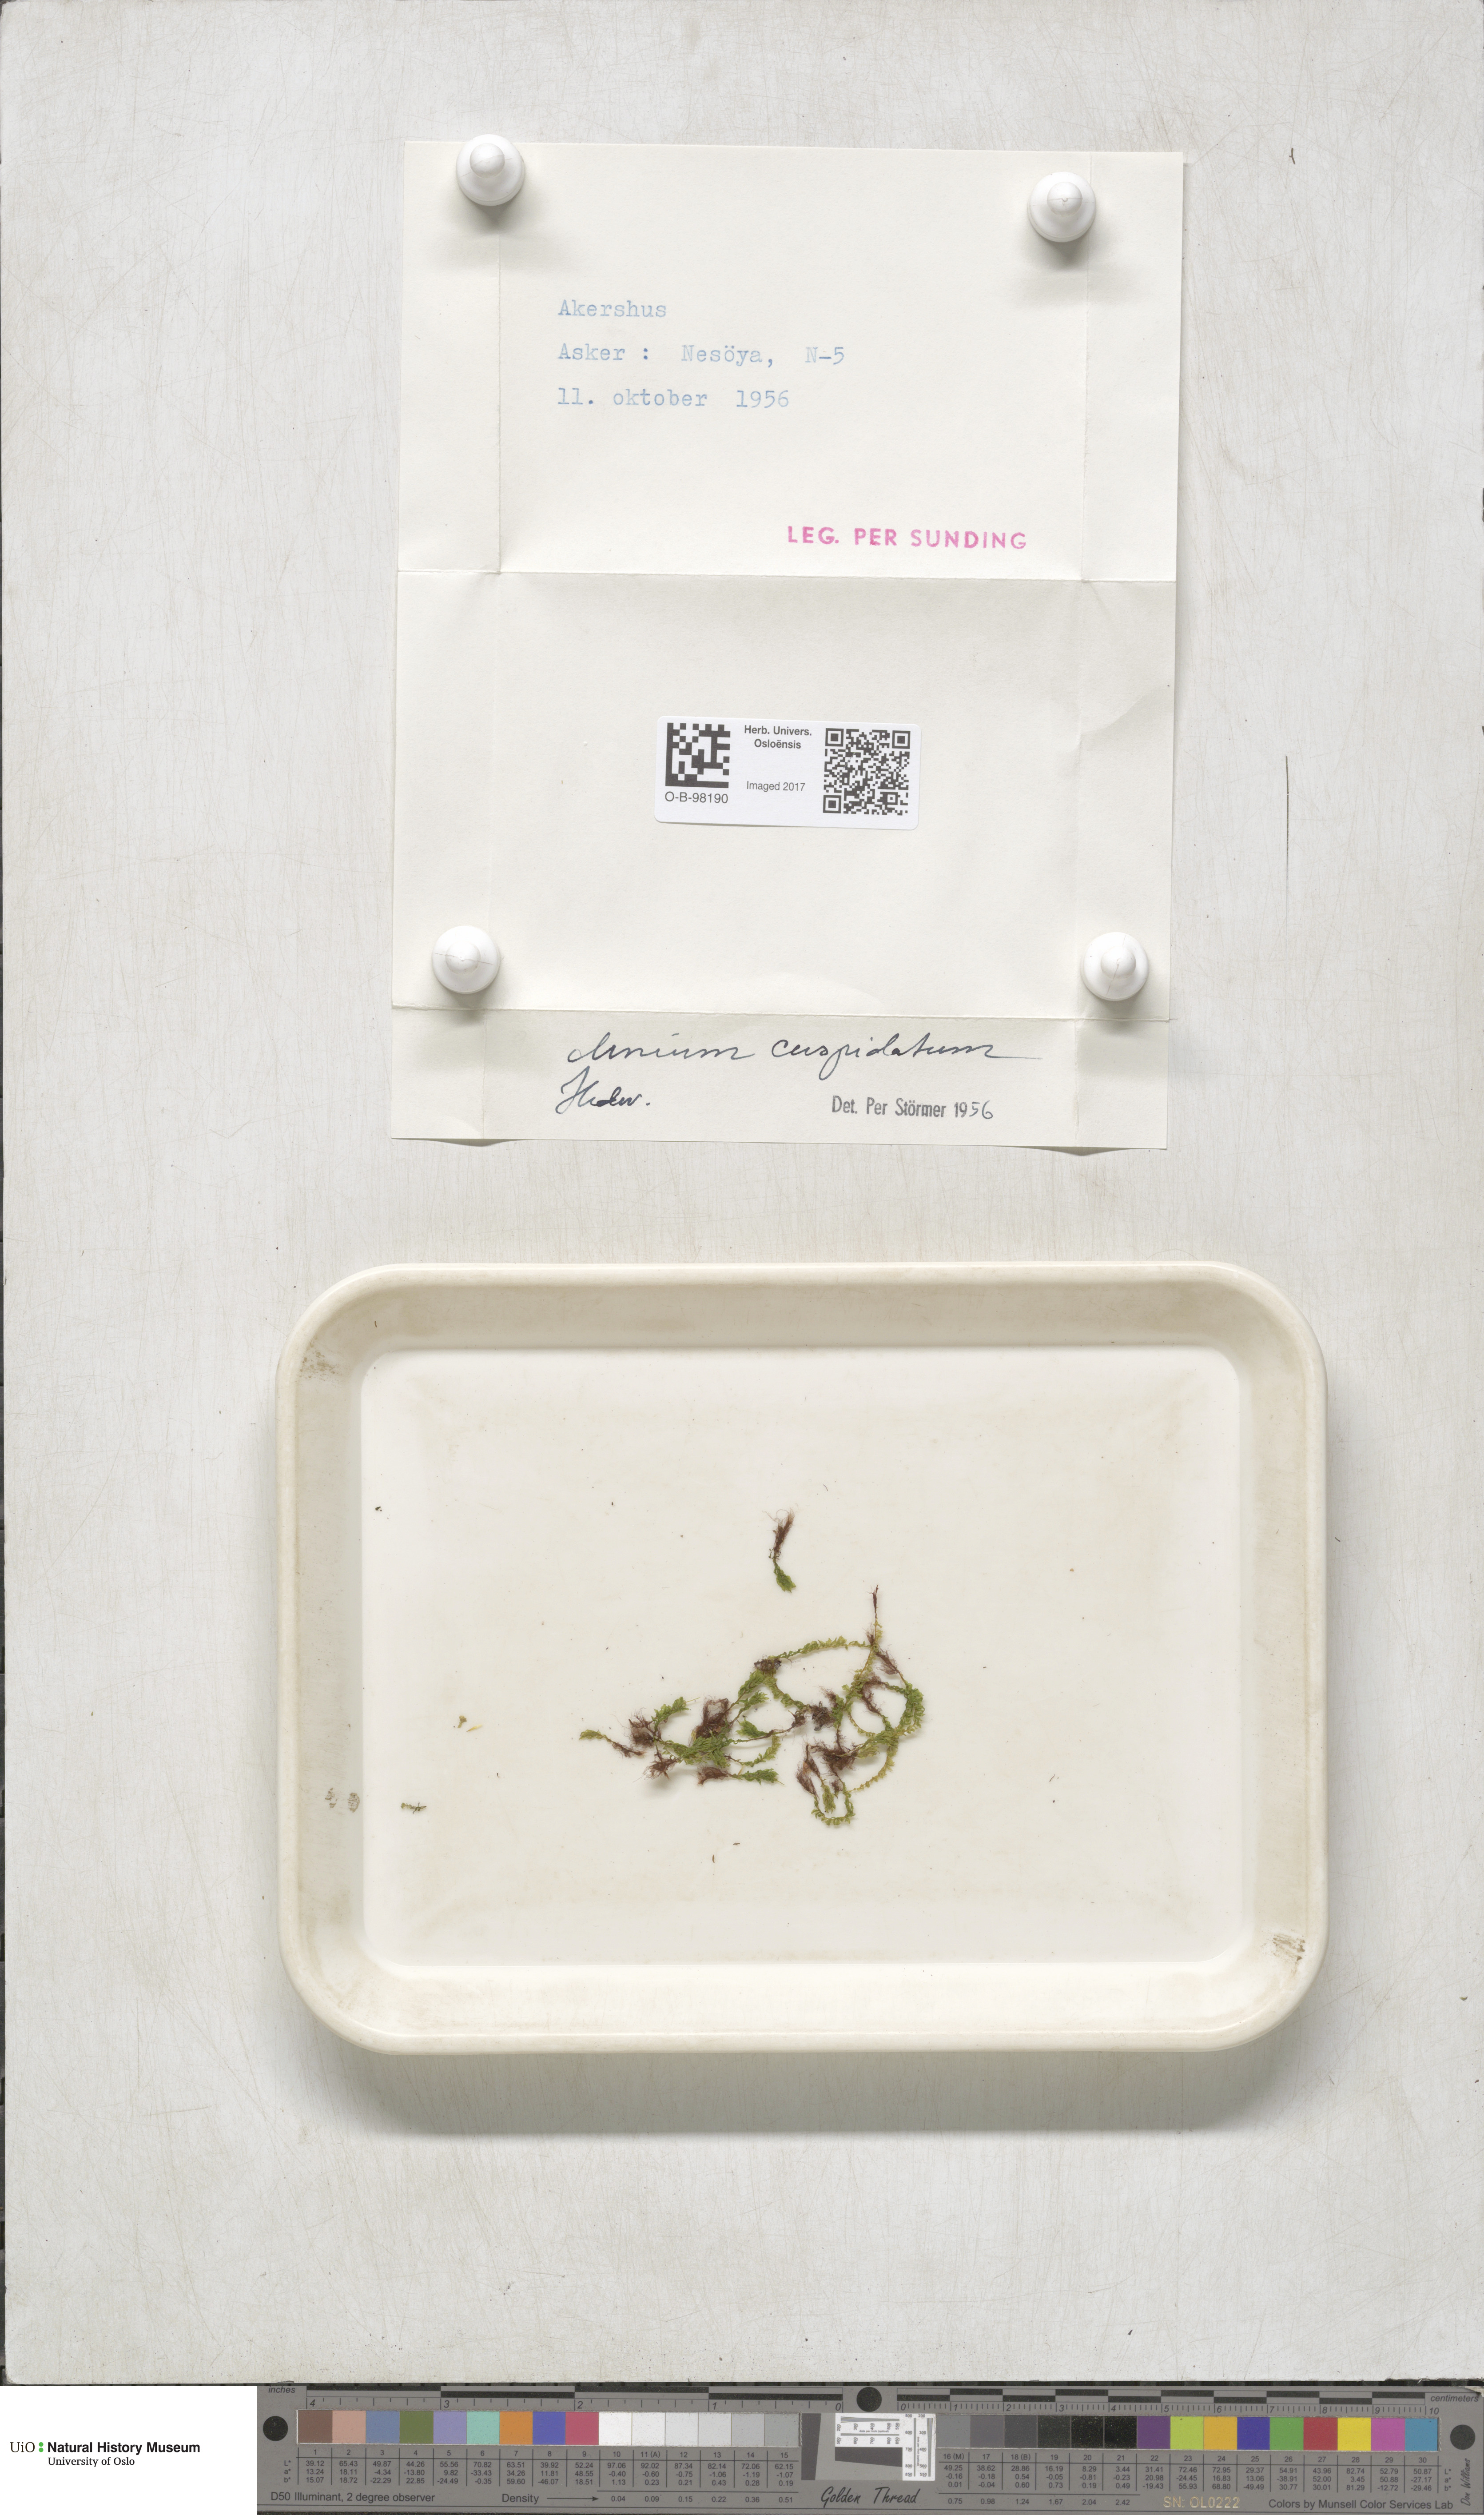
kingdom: Plantae
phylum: Bryophyta
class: Bryopsida
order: Bryales
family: Mniaceae
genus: Plagiomnium
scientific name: Plagiomnium cuspidatum
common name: Woodsy leafy moss
